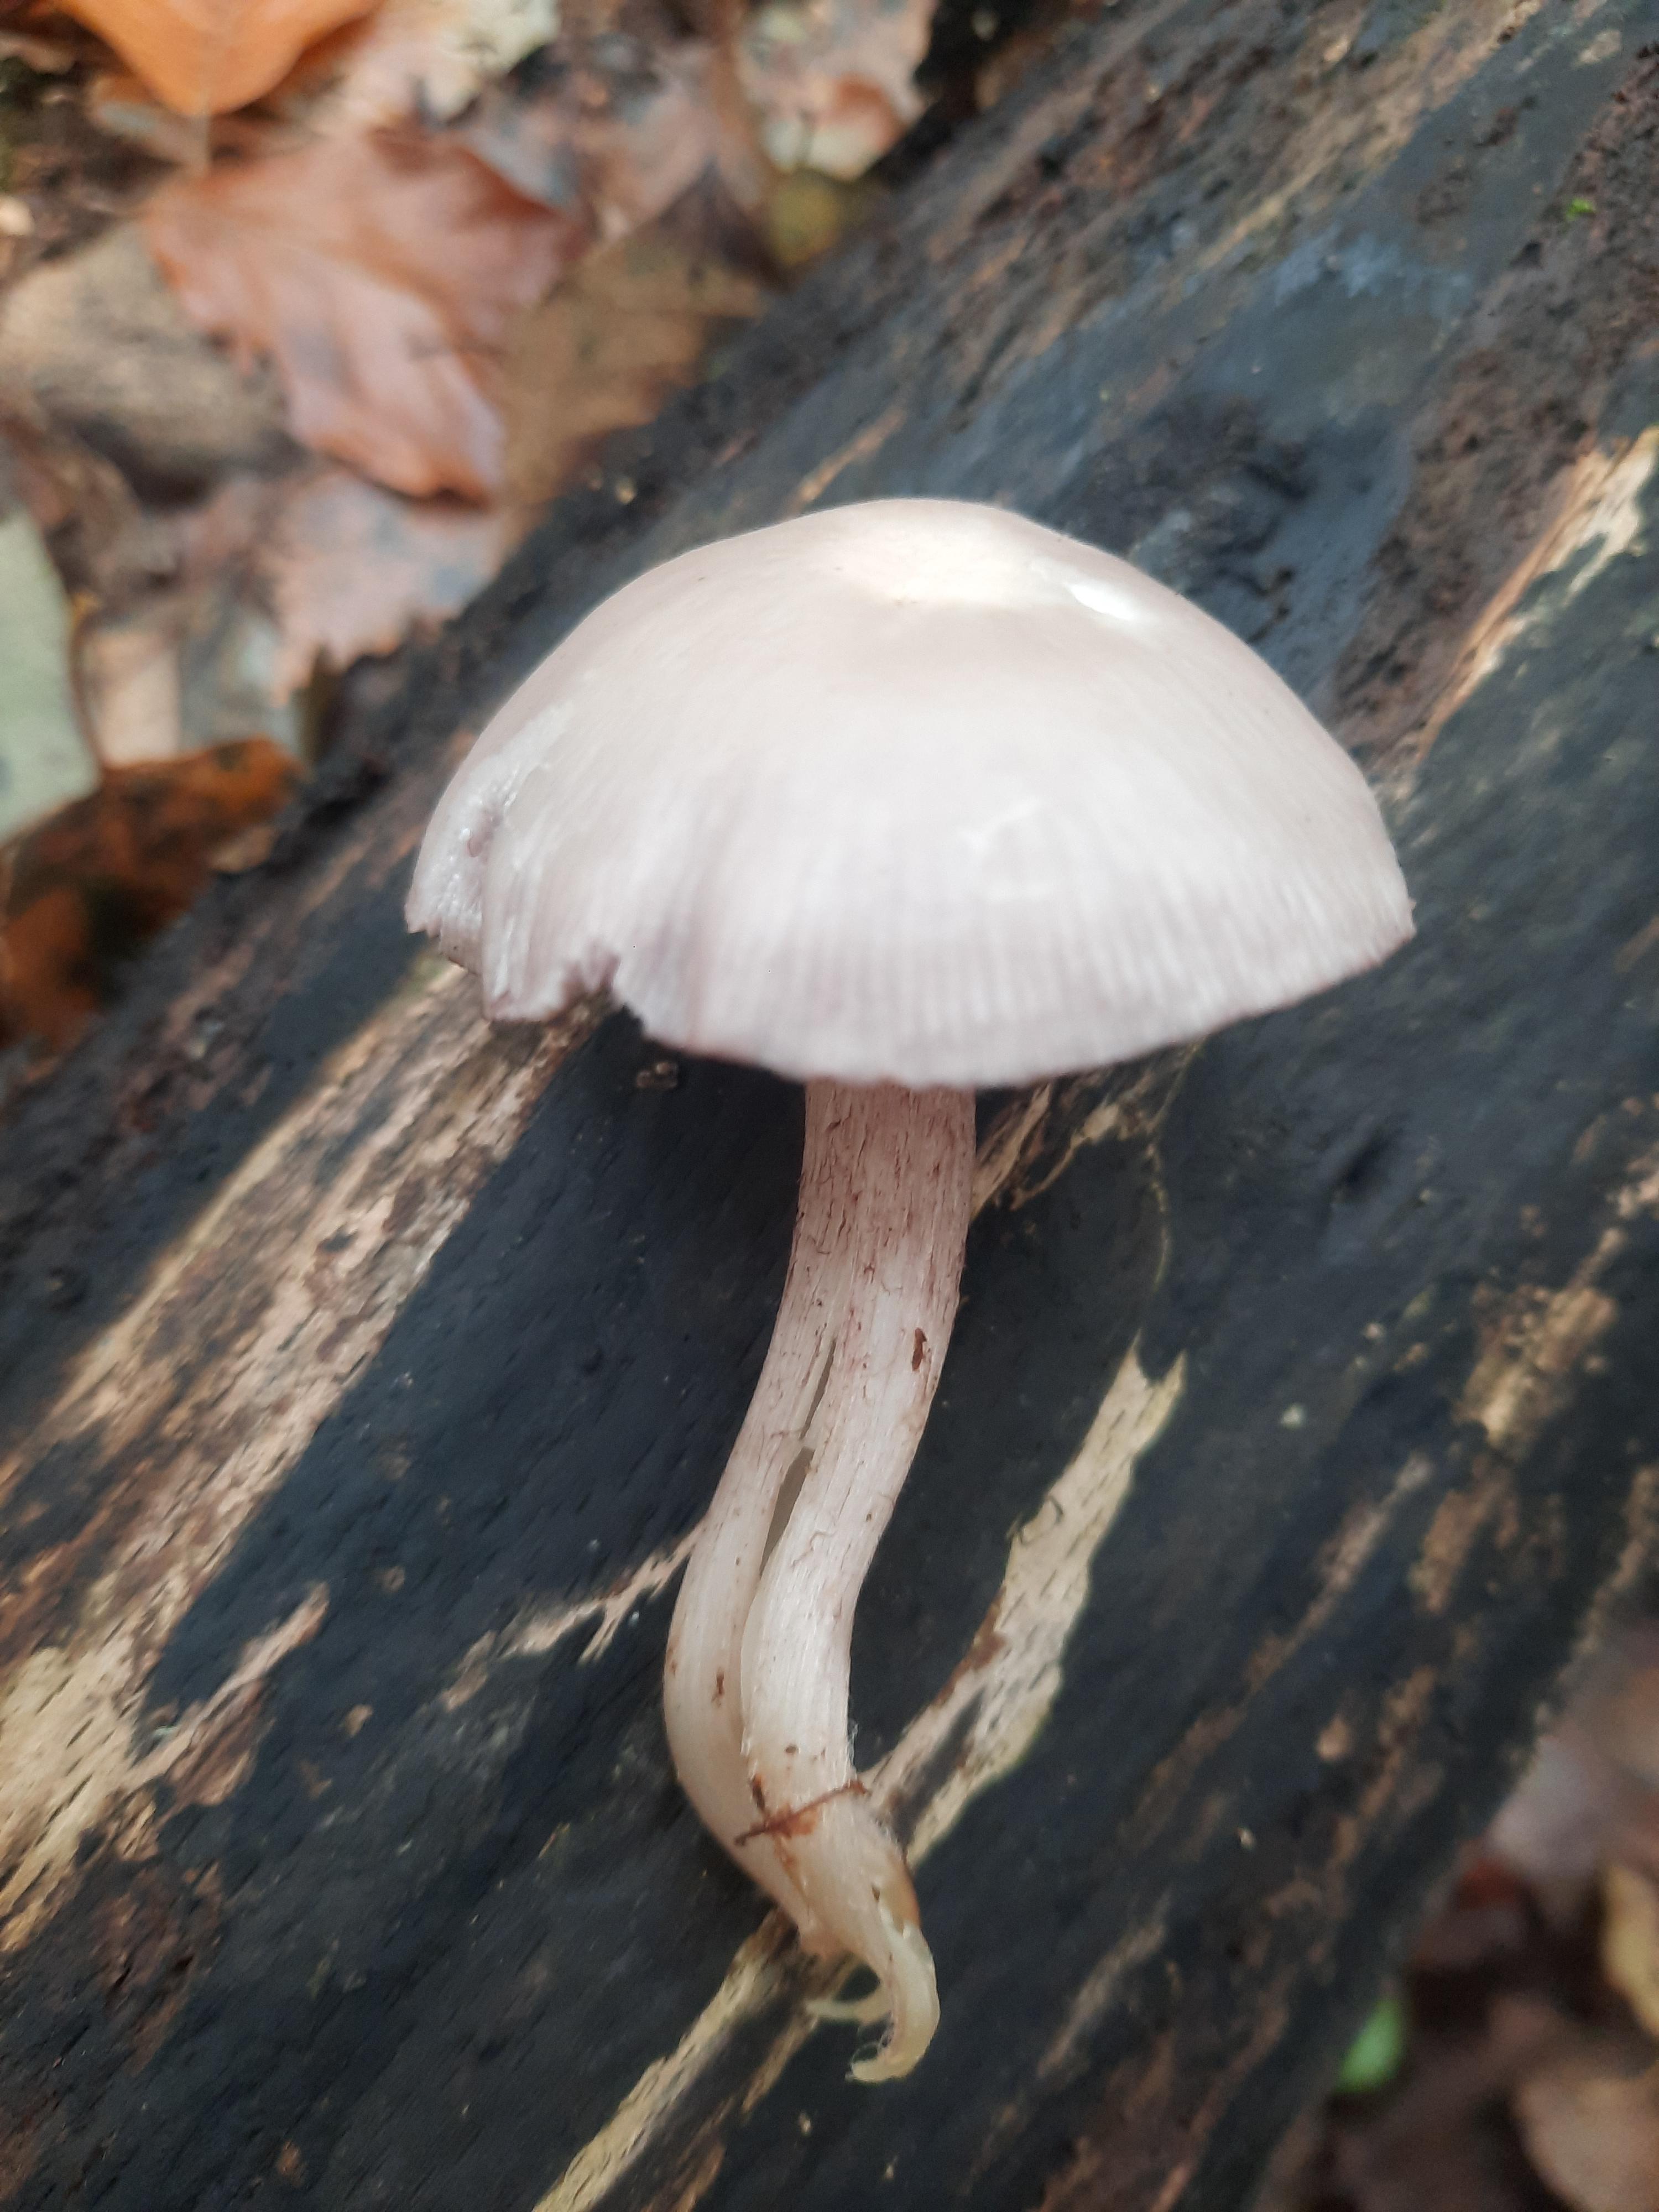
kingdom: Fungi
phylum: Basidiomycota
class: Agaricomycetes
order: Agaricales
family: Mycenaceae
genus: Mycena
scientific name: Mycena pelianthina
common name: mørkbladet huesvamp
